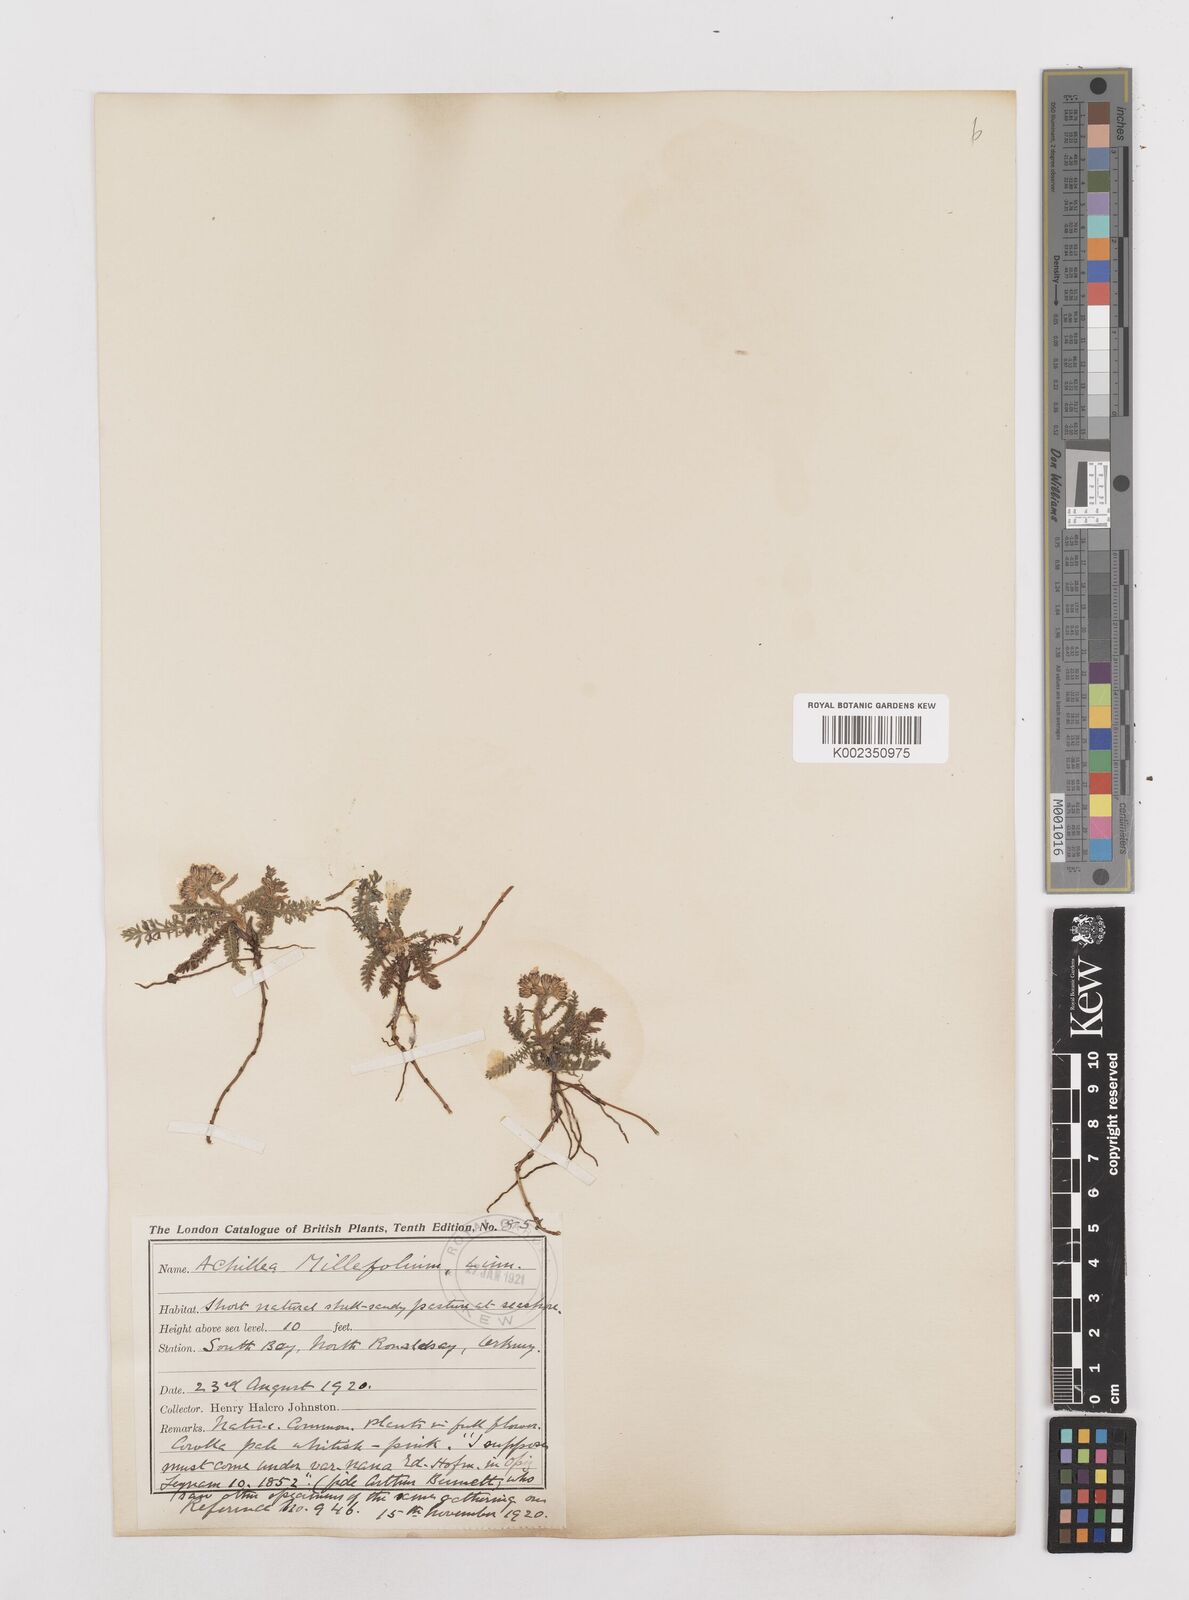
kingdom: Plantae
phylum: Tracheophyta
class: Magnoliopsida
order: Asterales
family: Asteraceae
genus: Achillea
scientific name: Achillea millefolium
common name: Yarrow
